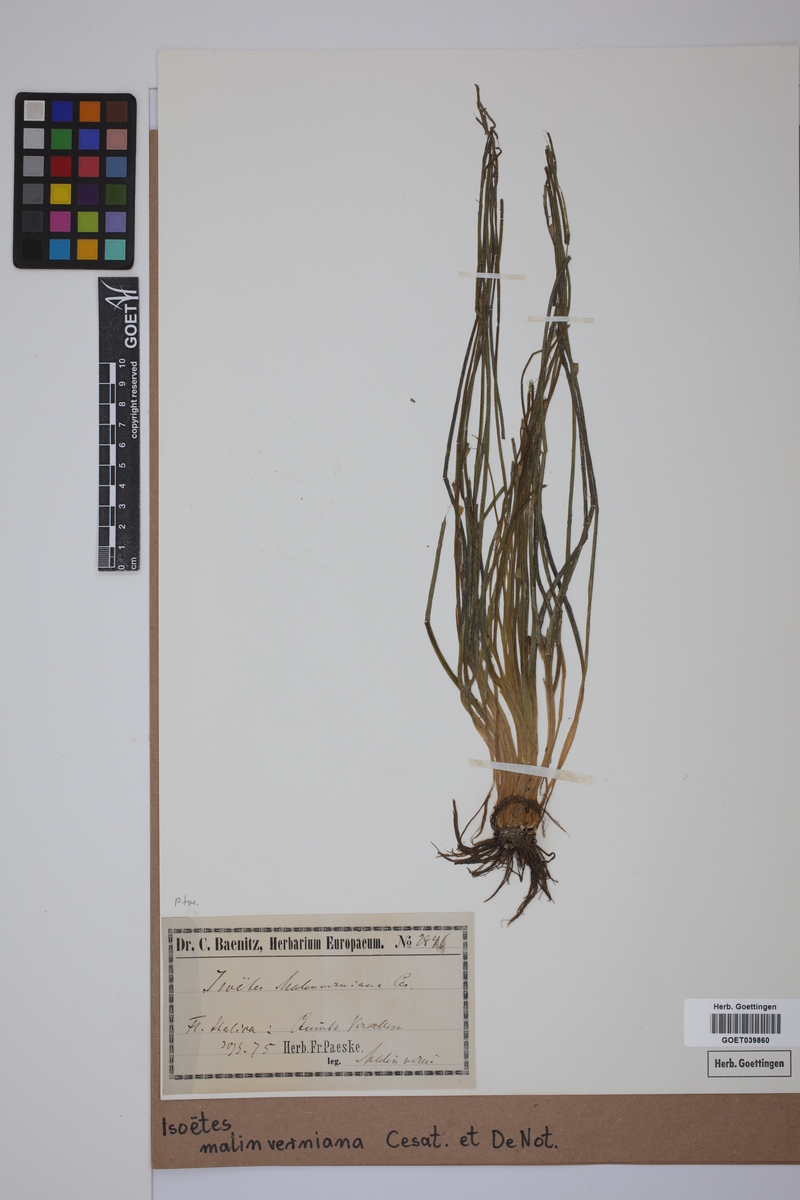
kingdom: Plantae
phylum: Tracheophyta
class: Lycopodiopsida
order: Isoetales
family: Isoetaceae
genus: Isoetes
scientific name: Isoetes malinverniana
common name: Piedmont quillwort
